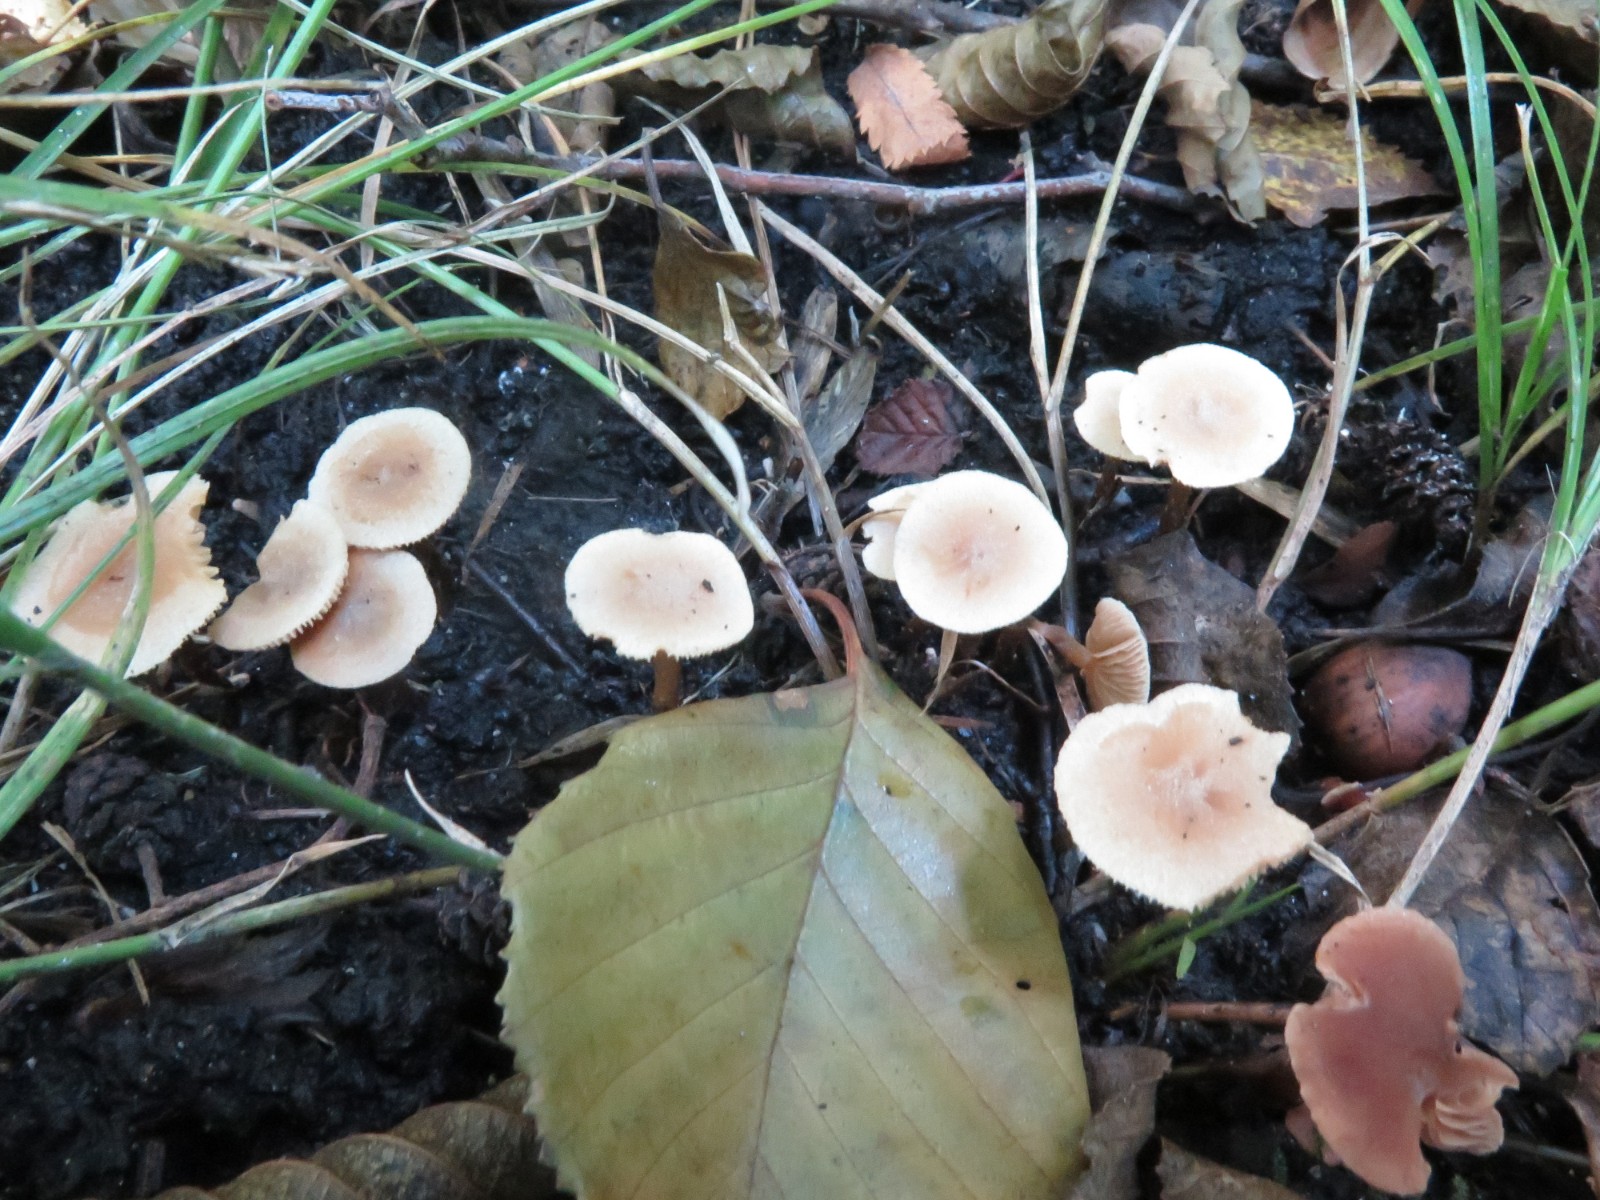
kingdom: Fungi
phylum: Basidiomycota
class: Agaricomycetes
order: Agaricales
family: Hymenogastraceae
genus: Naucoria
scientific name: Naucoria escharioides
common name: lys elle-knaphat
